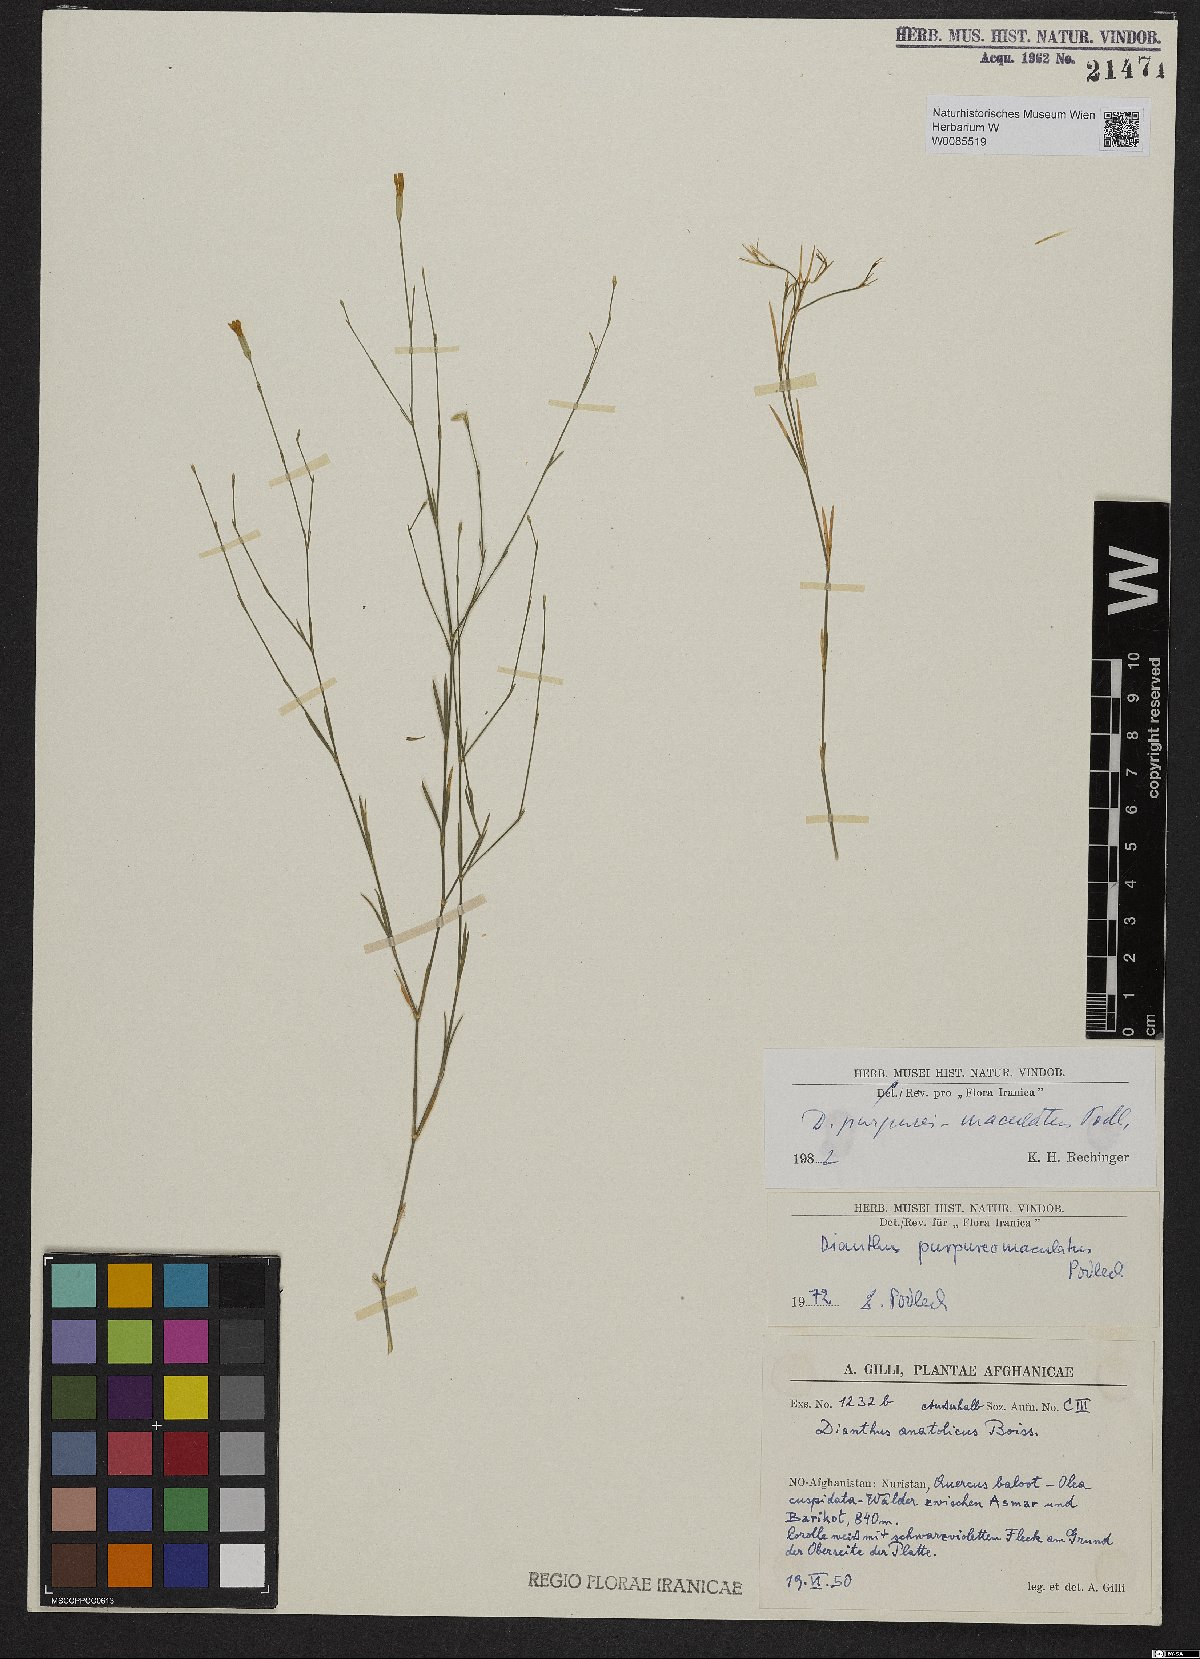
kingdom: Plantae
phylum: Tracheophyta
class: Magnoliopsida
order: Caryophyllales
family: Caryophyllaceae
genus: Dianthus
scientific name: Dianthus purpureimaculatus
